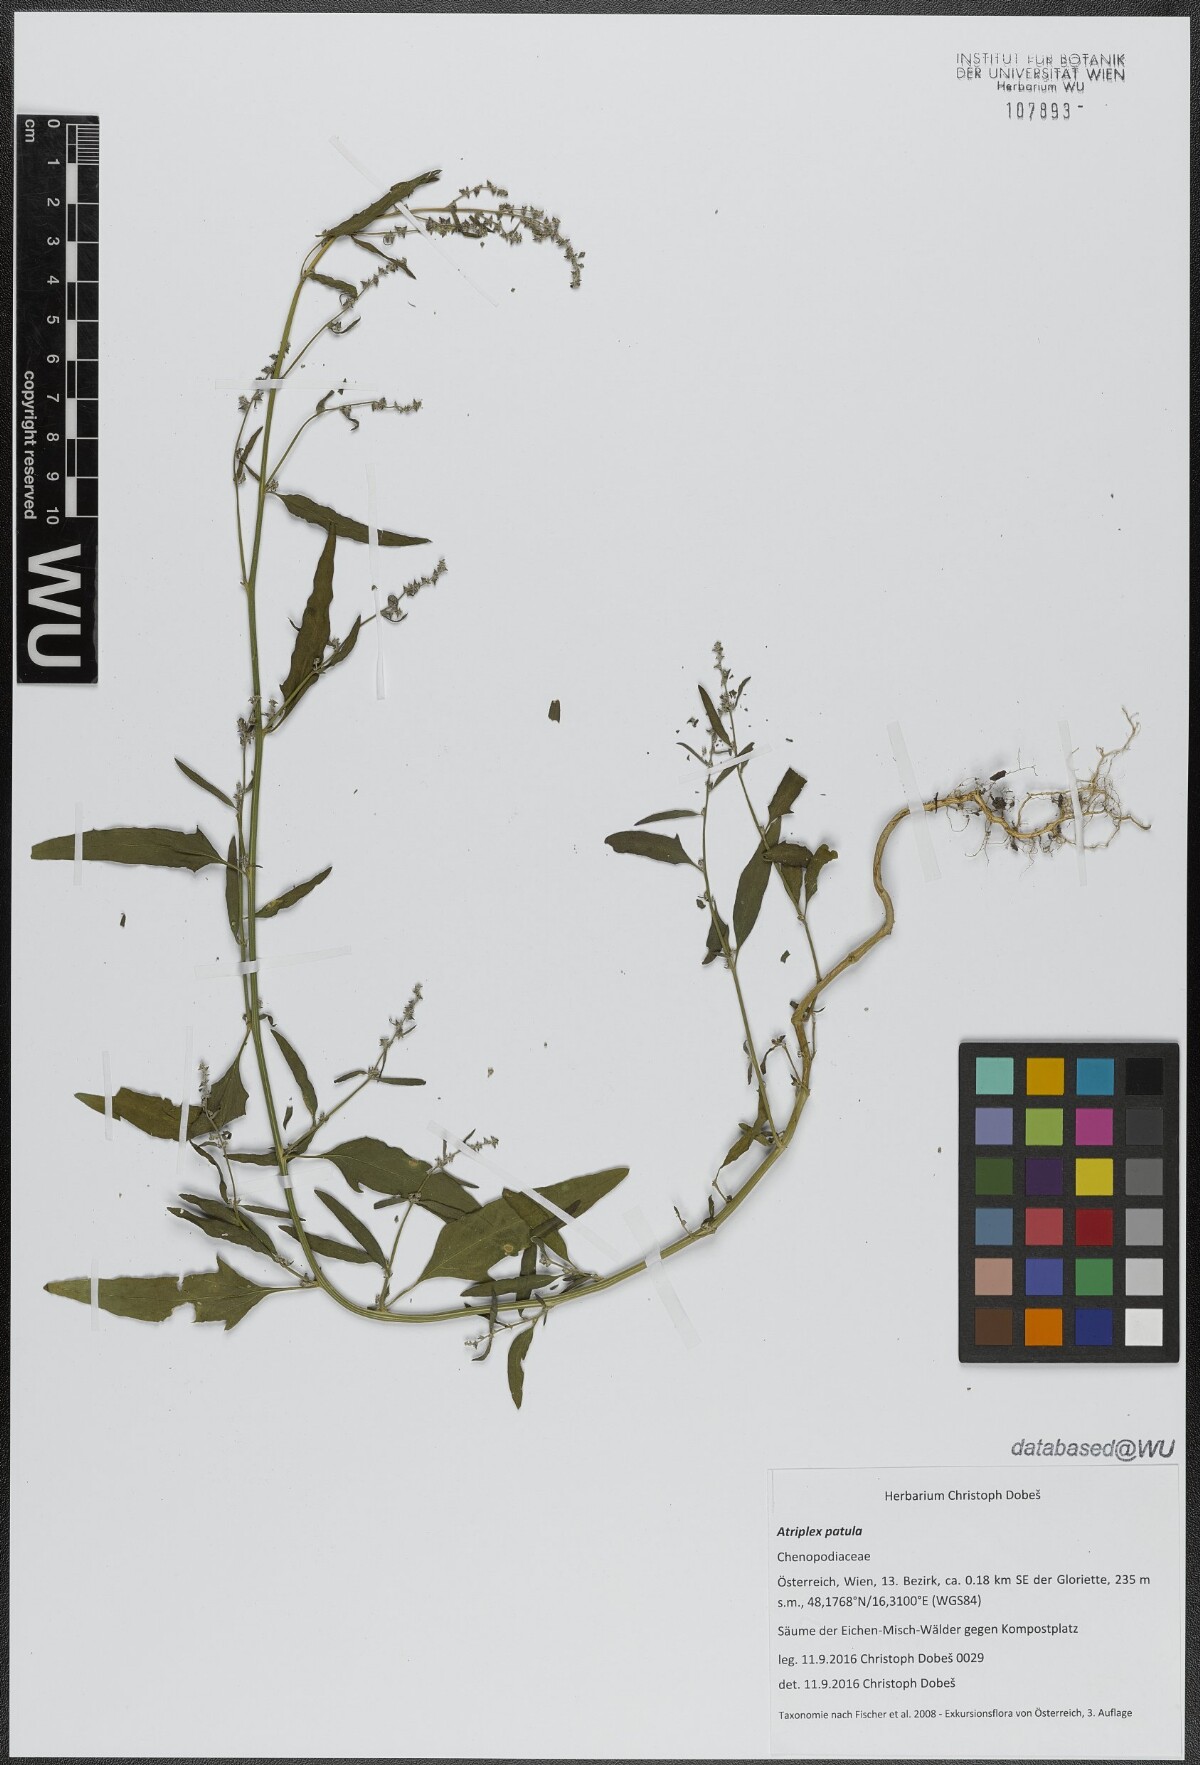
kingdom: Plantae
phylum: Tracheophyta
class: Magnoliopsida
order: Caryophyllales
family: Amaranthaceae
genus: Atriplex
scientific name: Atriplex patula
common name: Common orache
